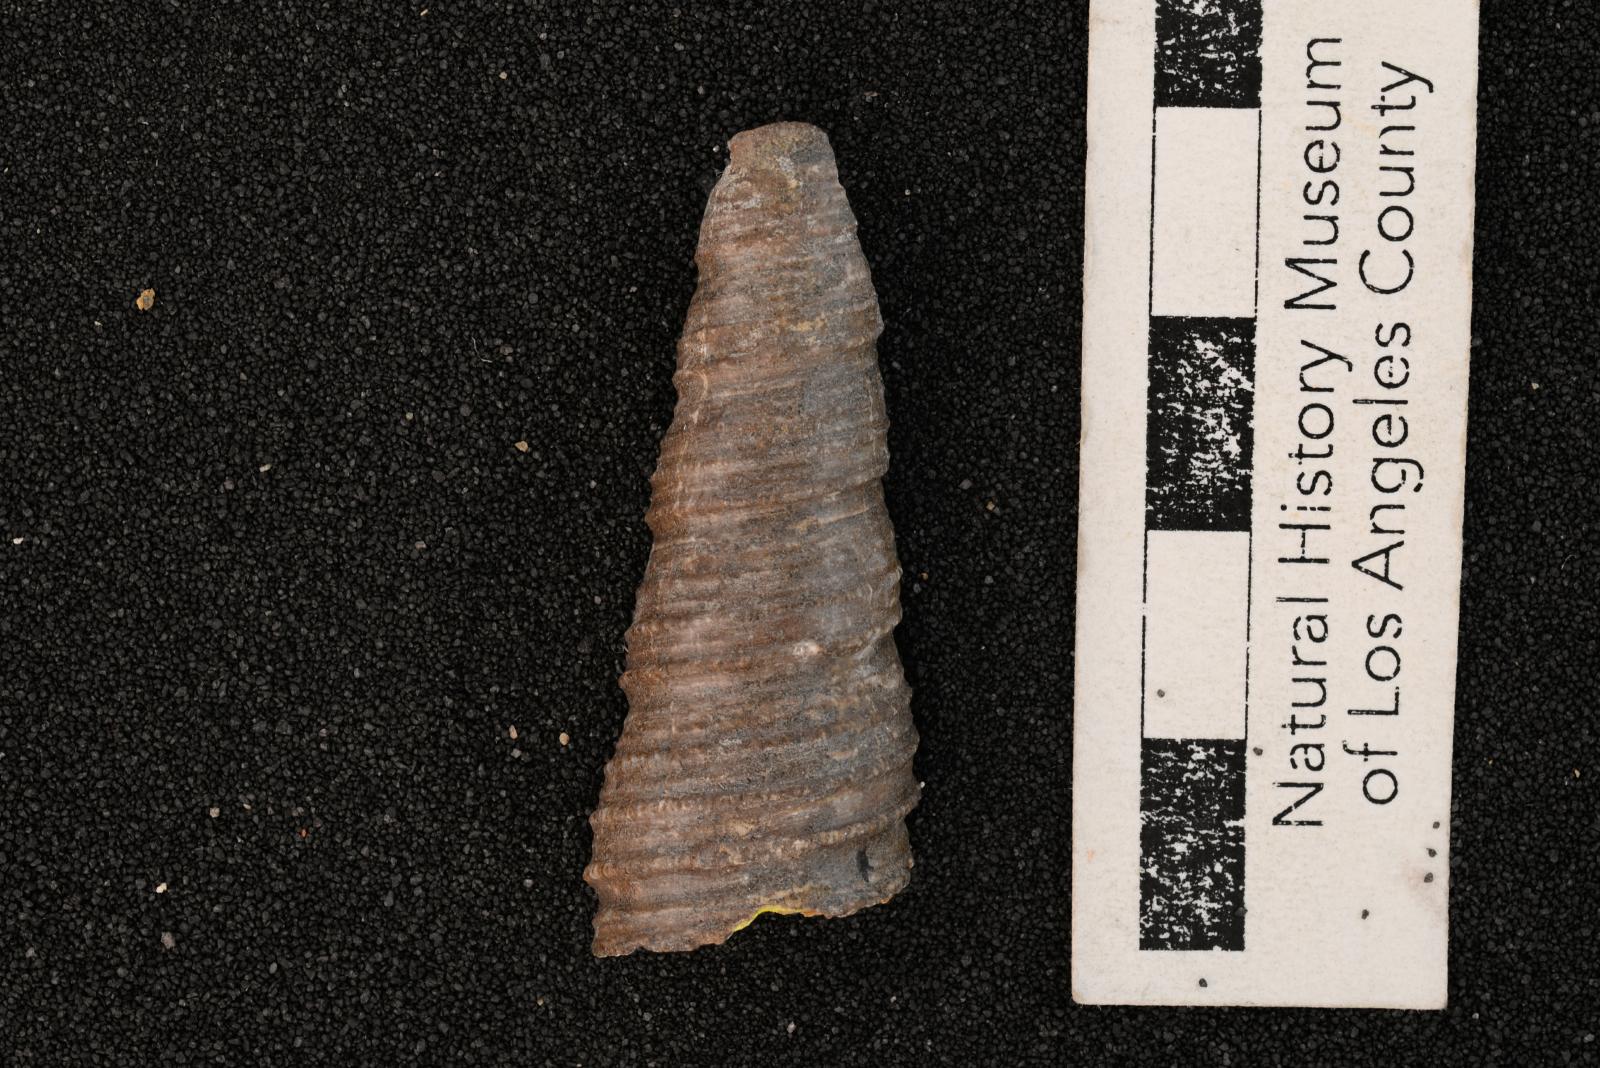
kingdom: Animalia
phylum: Mollusca
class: Gastropoda
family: Turritellidae
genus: Turritella
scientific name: Turritella chicoensis
